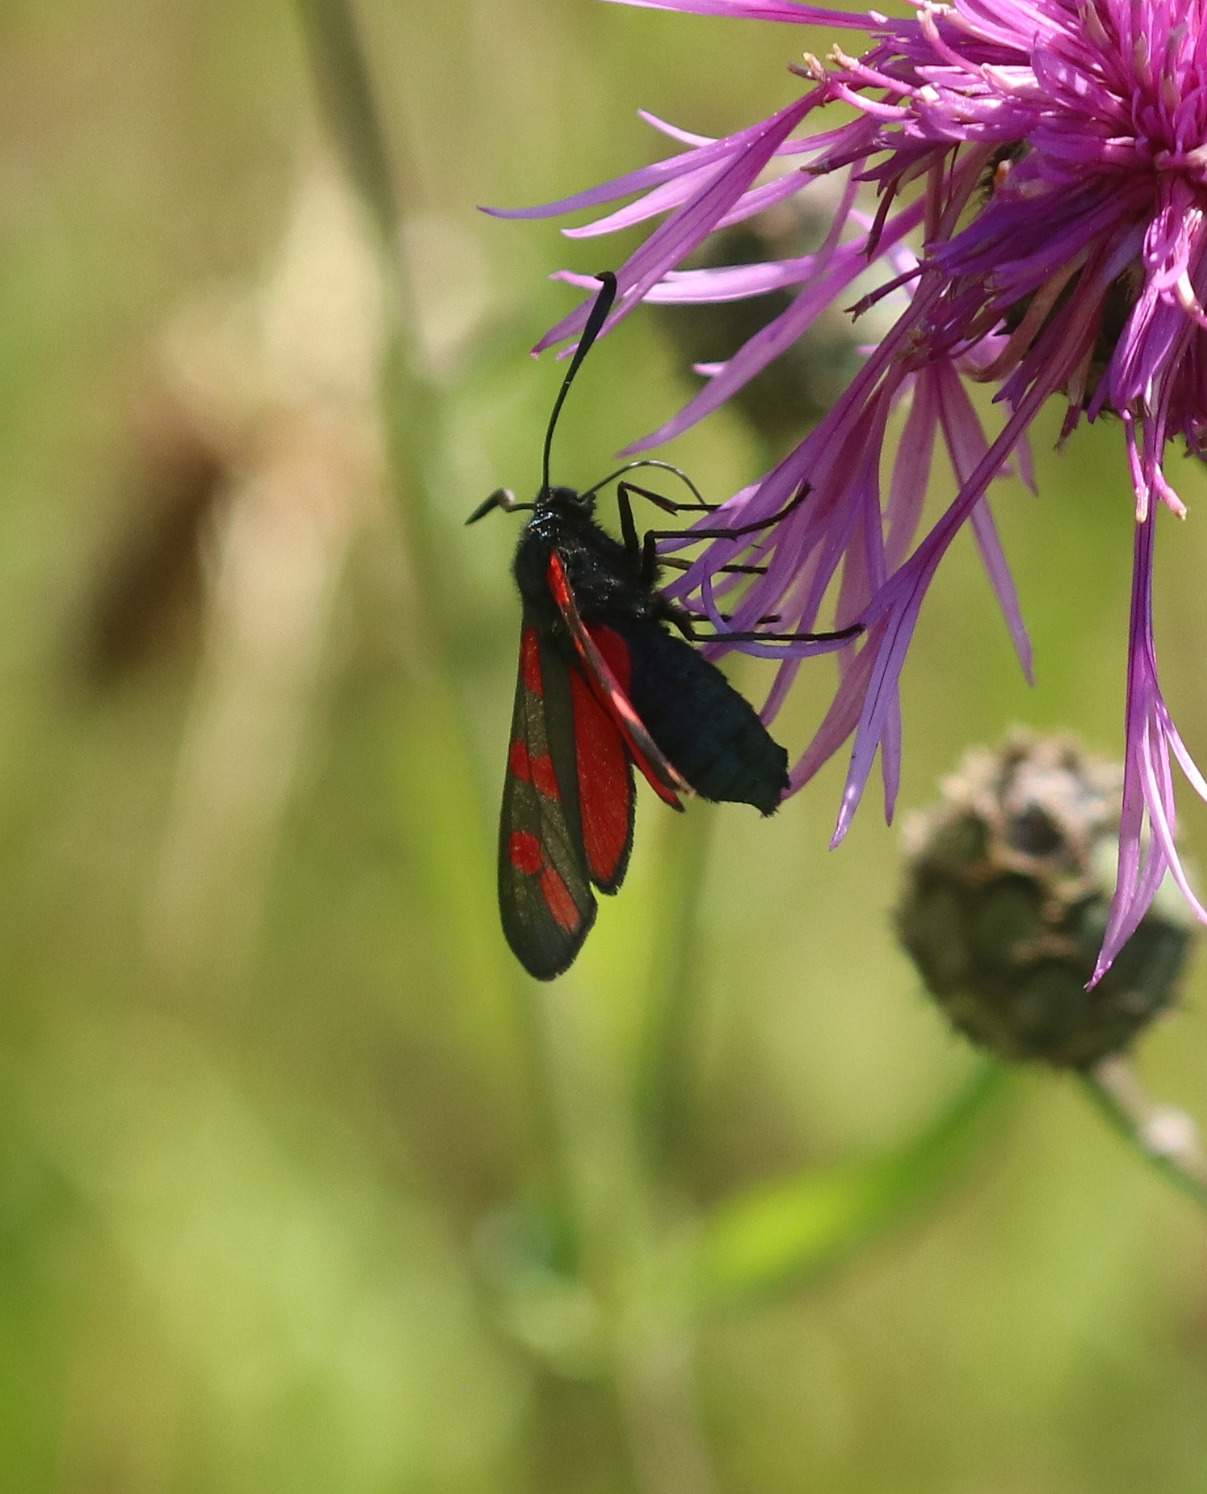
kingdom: Animalia
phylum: Arthropoda
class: Insecta
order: Lepidoptera
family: Zygaenidae
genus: Zygaena
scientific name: Zygaena filipendulae
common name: Seksplettet køllesværmer
